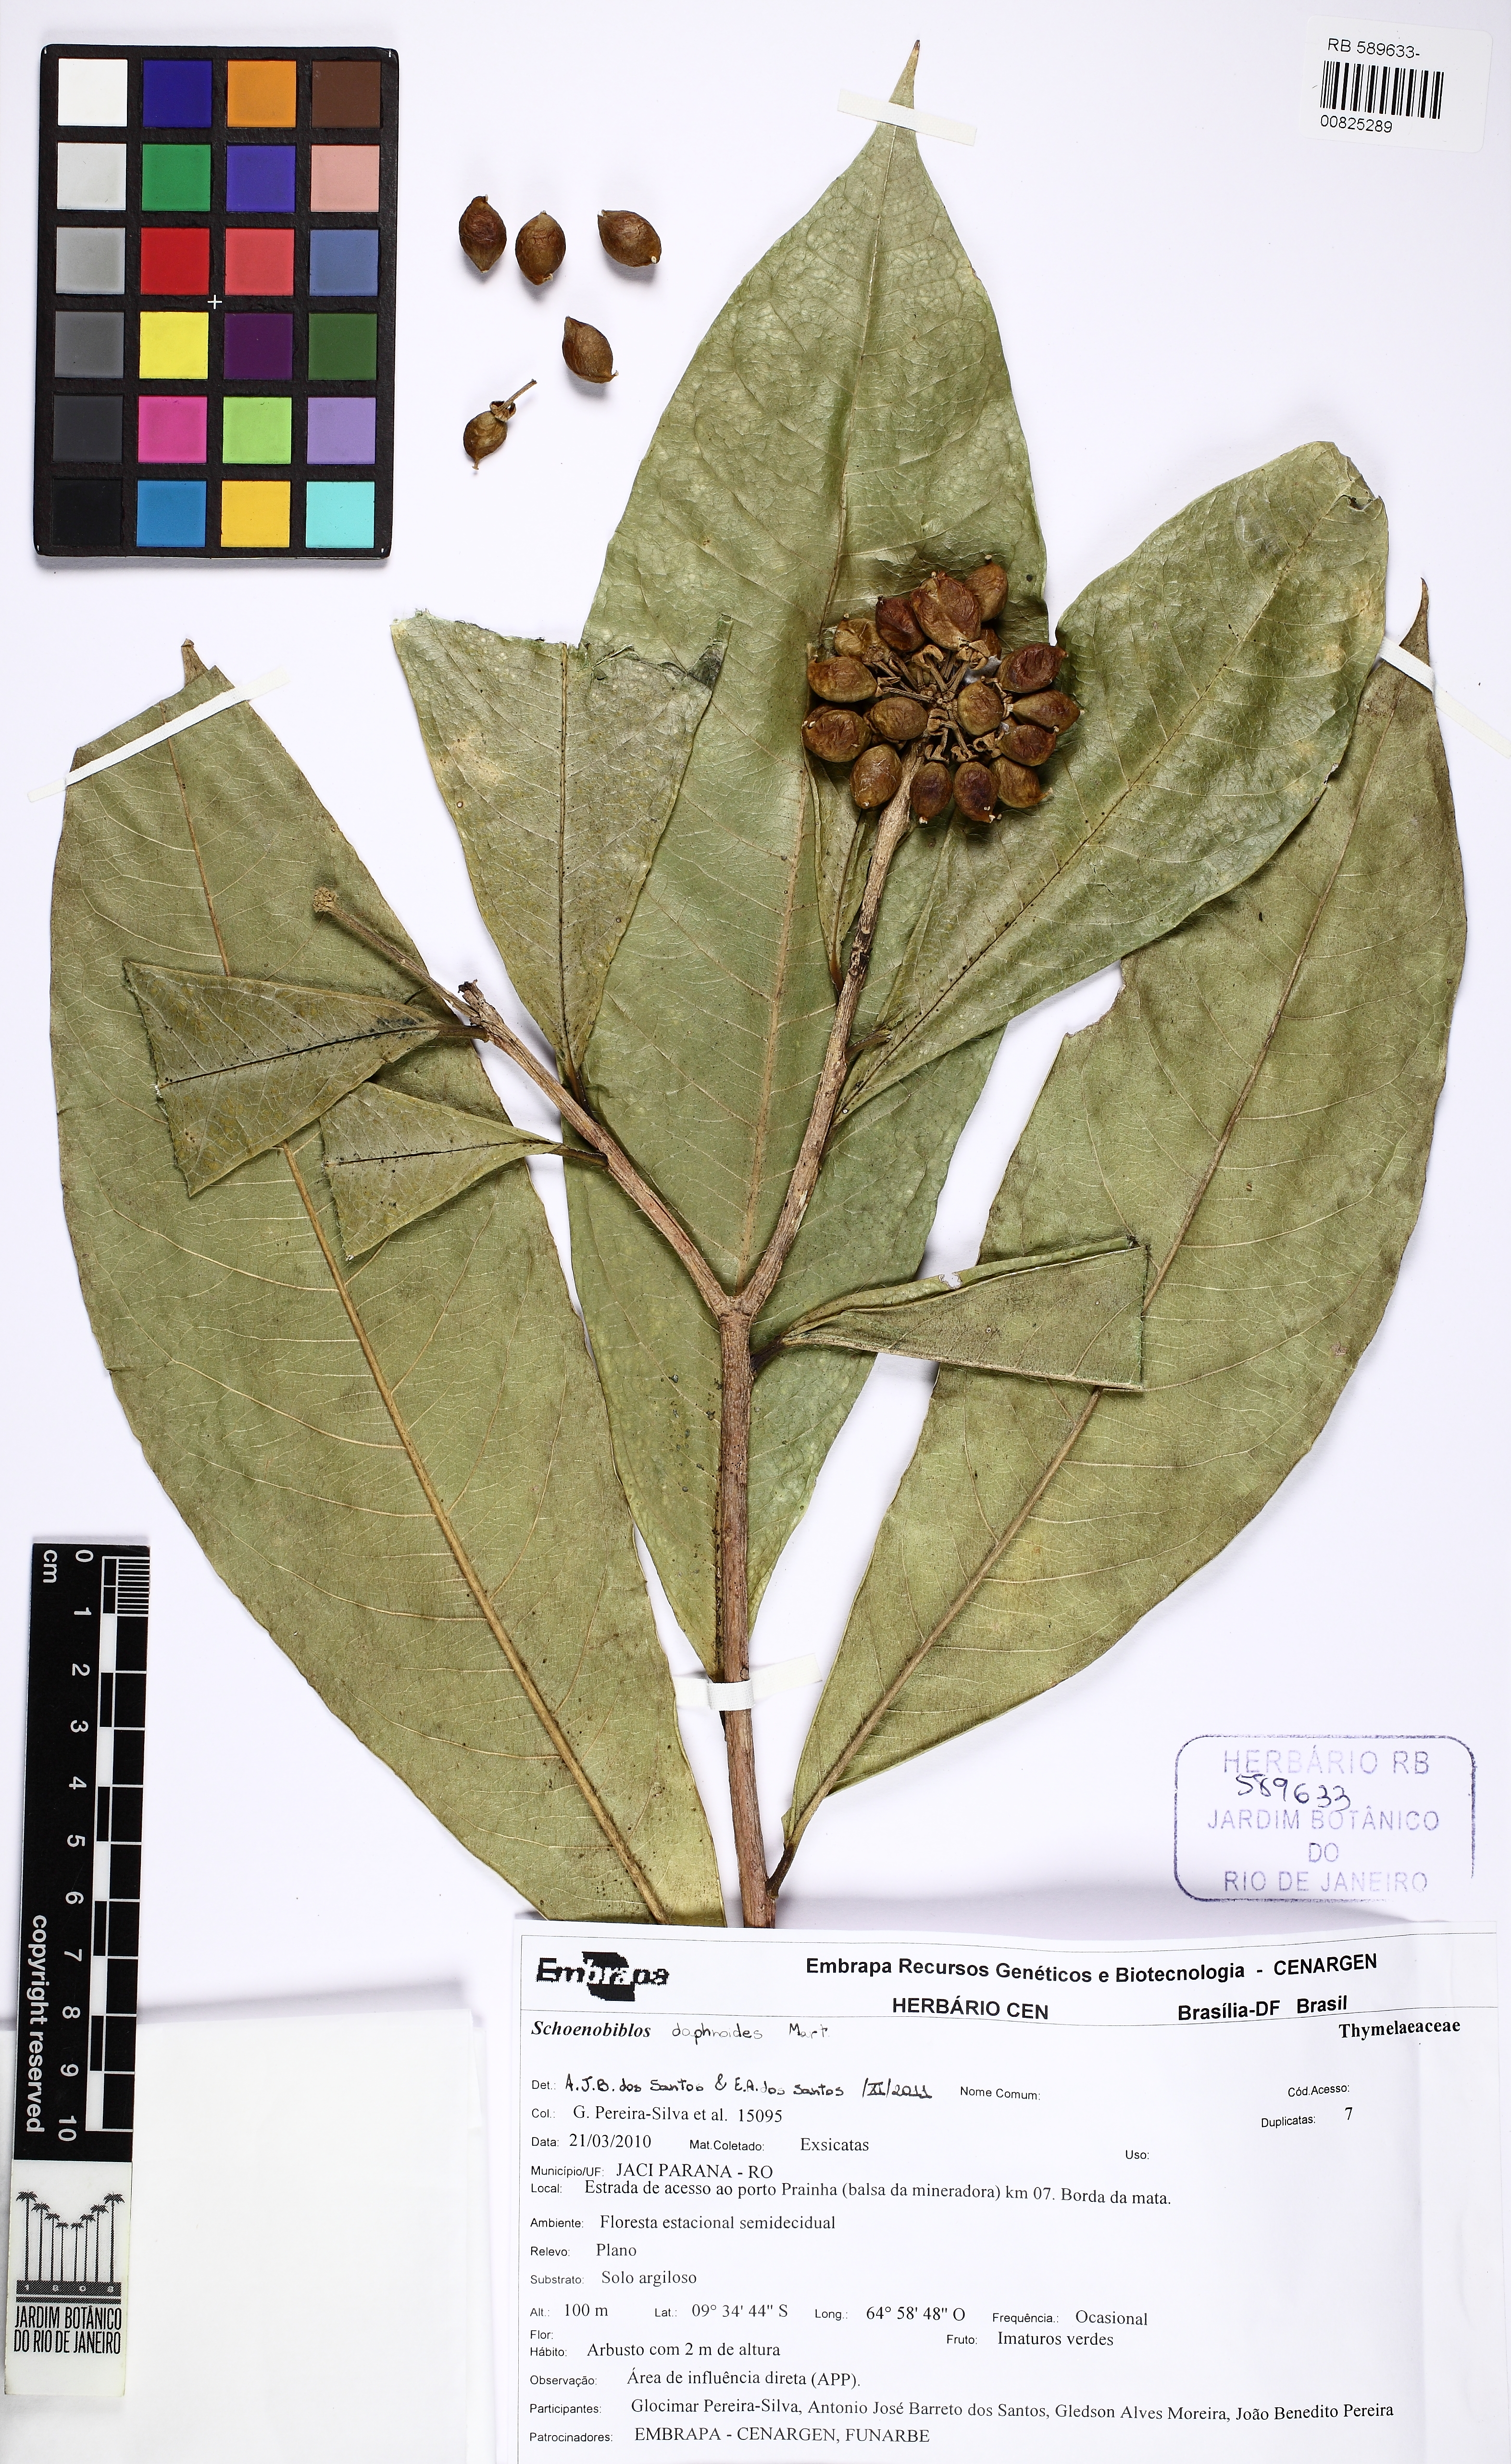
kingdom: Plantae
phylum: Tracheophyta
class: Magnoliopsida
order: Malvales
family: Thymelaeaceae
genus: Schoenobiblus
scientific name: Schoenobiblus daphnoides
